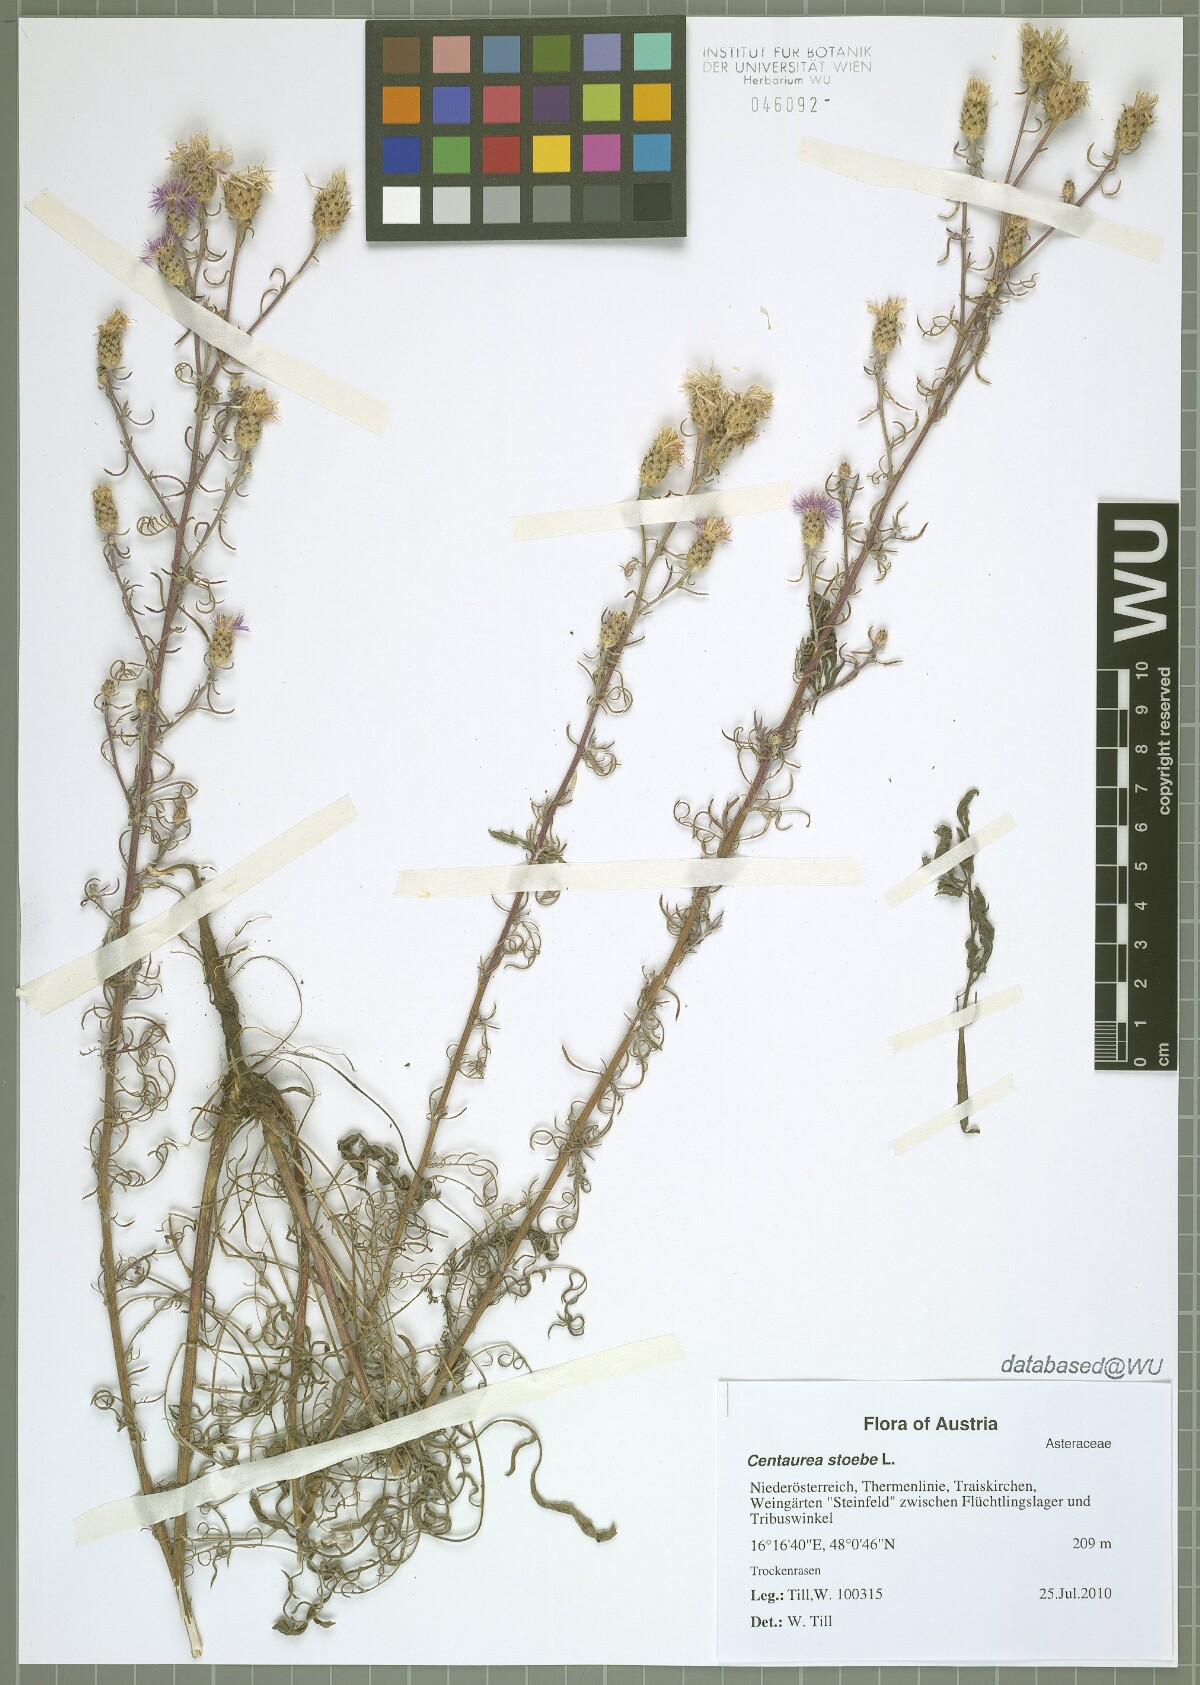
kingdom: Plantae
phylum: Tracheophyta
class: Magnoliopsida
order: Asterales
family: Asteraceae
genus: Centaurea
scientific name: Centaurea stoebe
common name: Spotted knapweed
